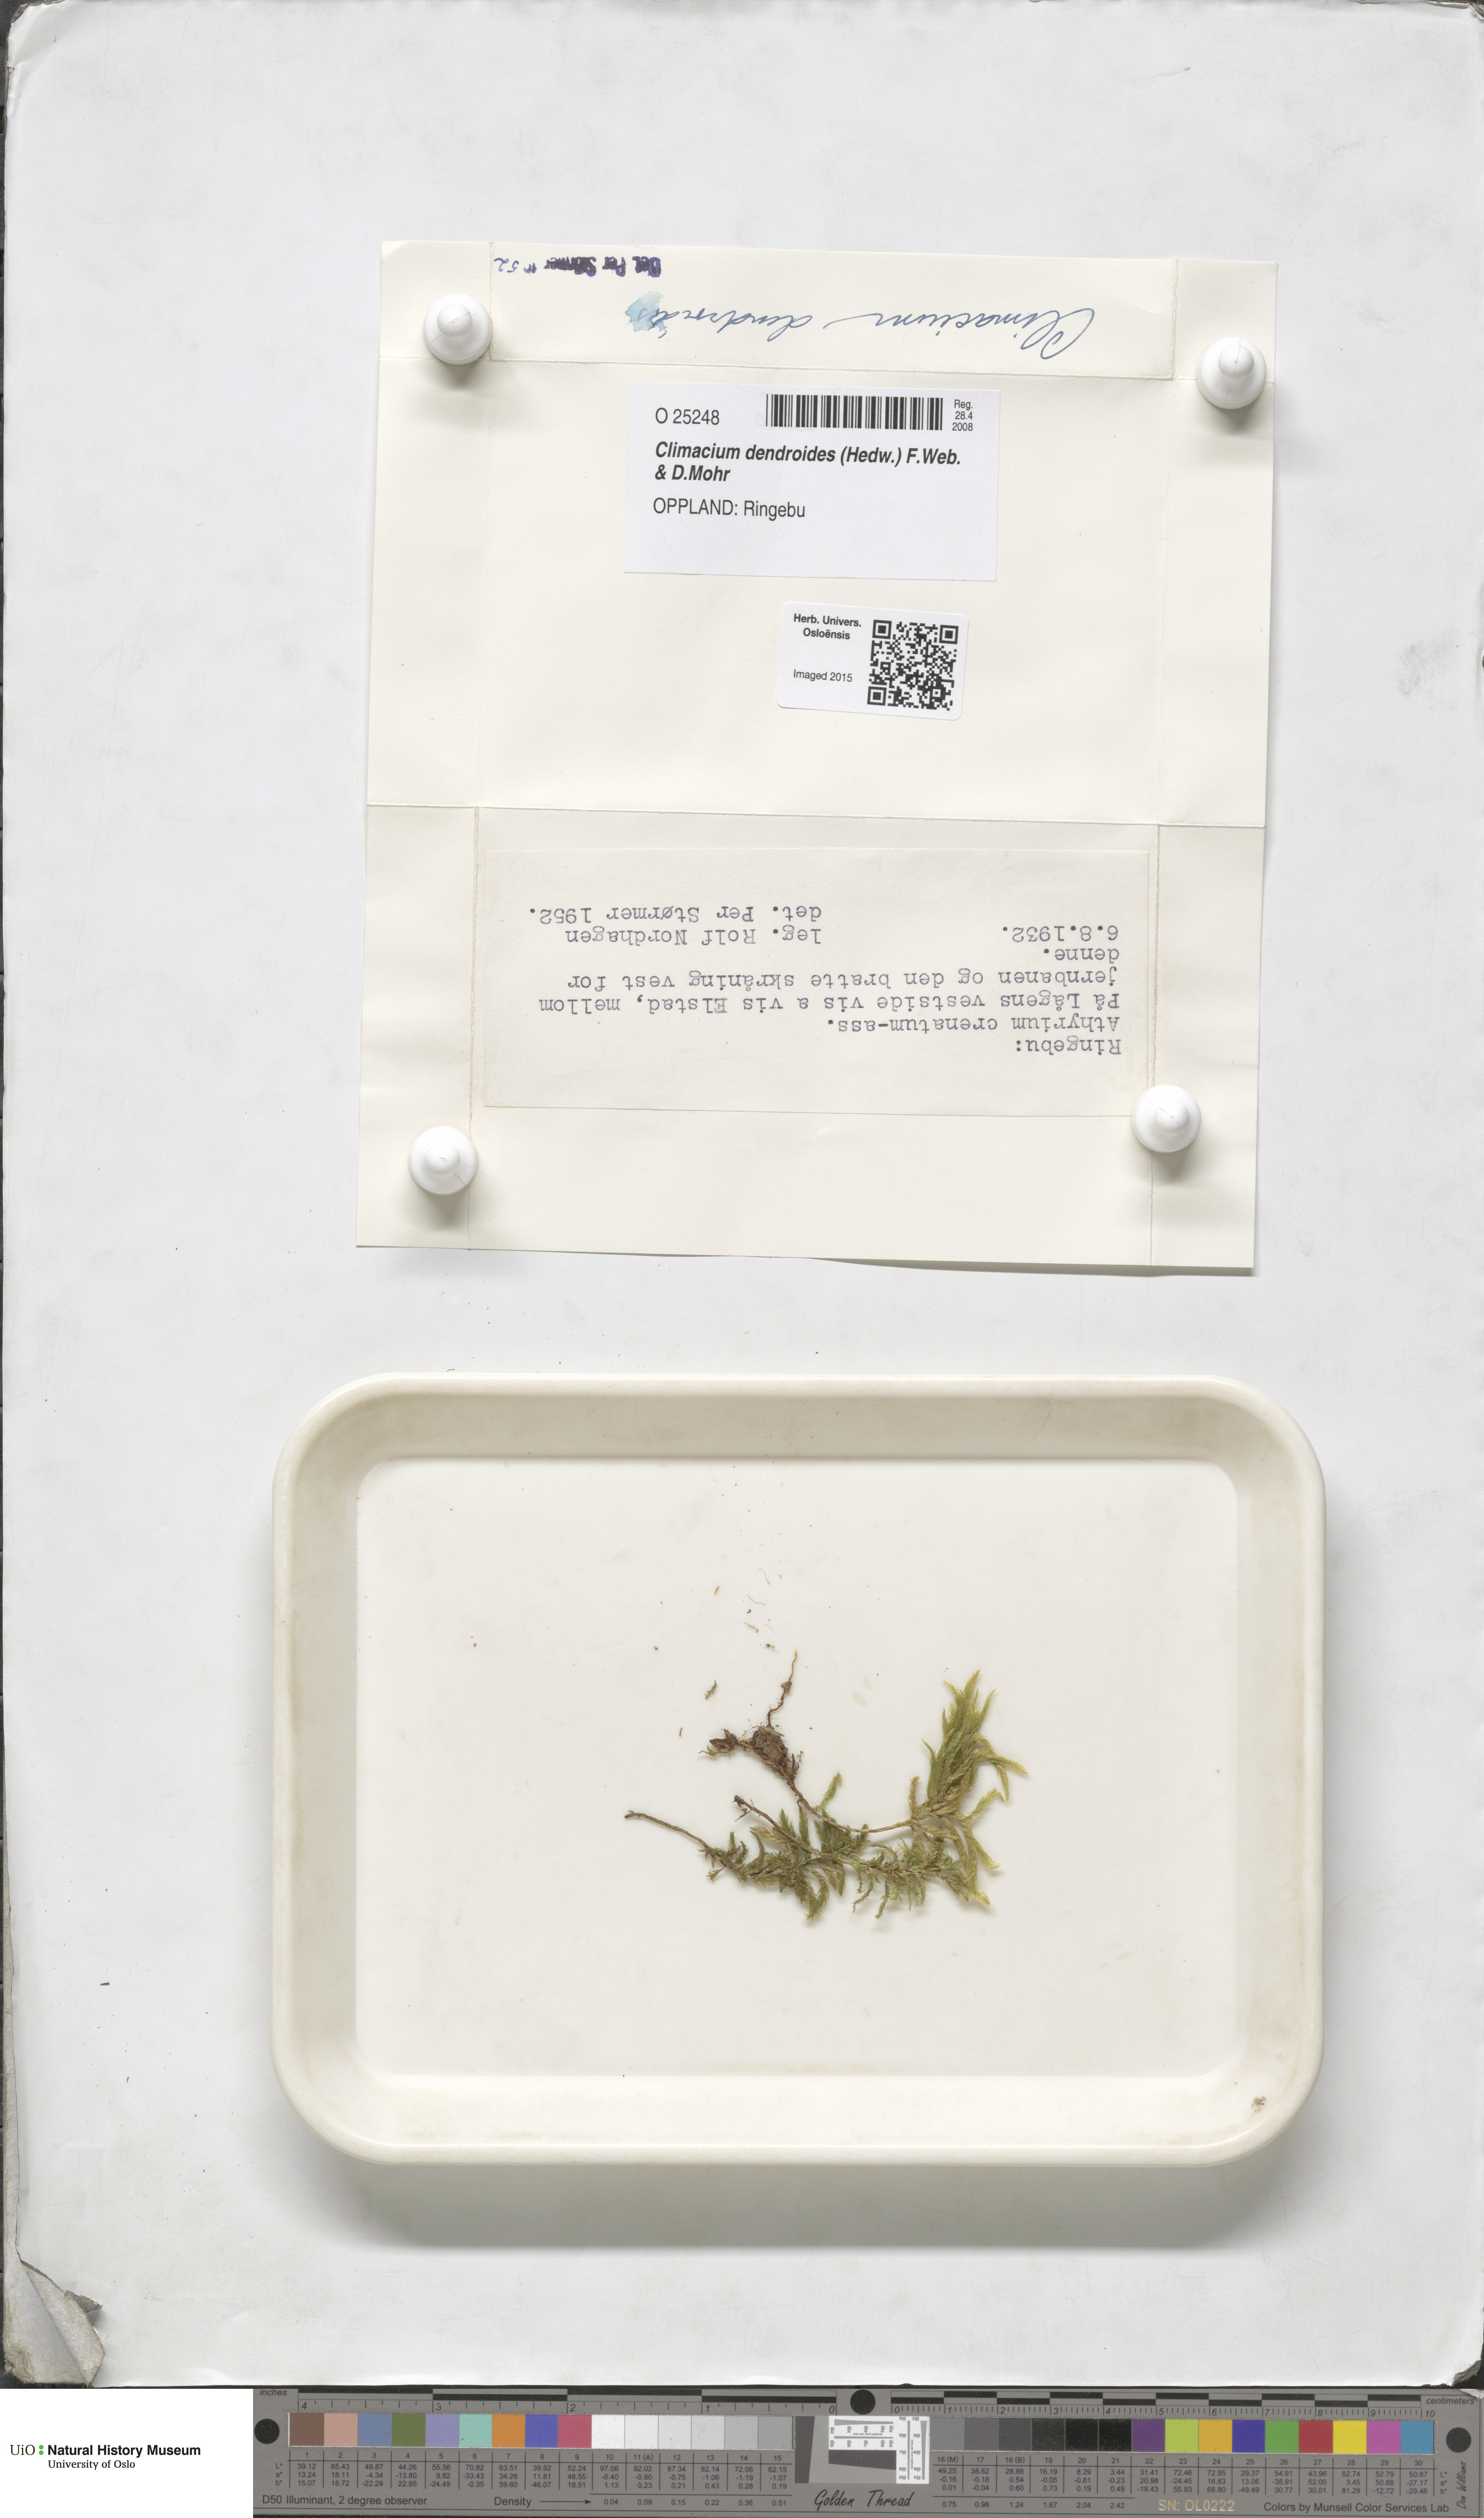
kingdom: Plantae
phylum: Bryophyta
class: Bryopsida
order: Hypnales
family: Climaciaceae
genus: Climacium
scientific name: Climacium dendroides
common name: Northern tree moss
